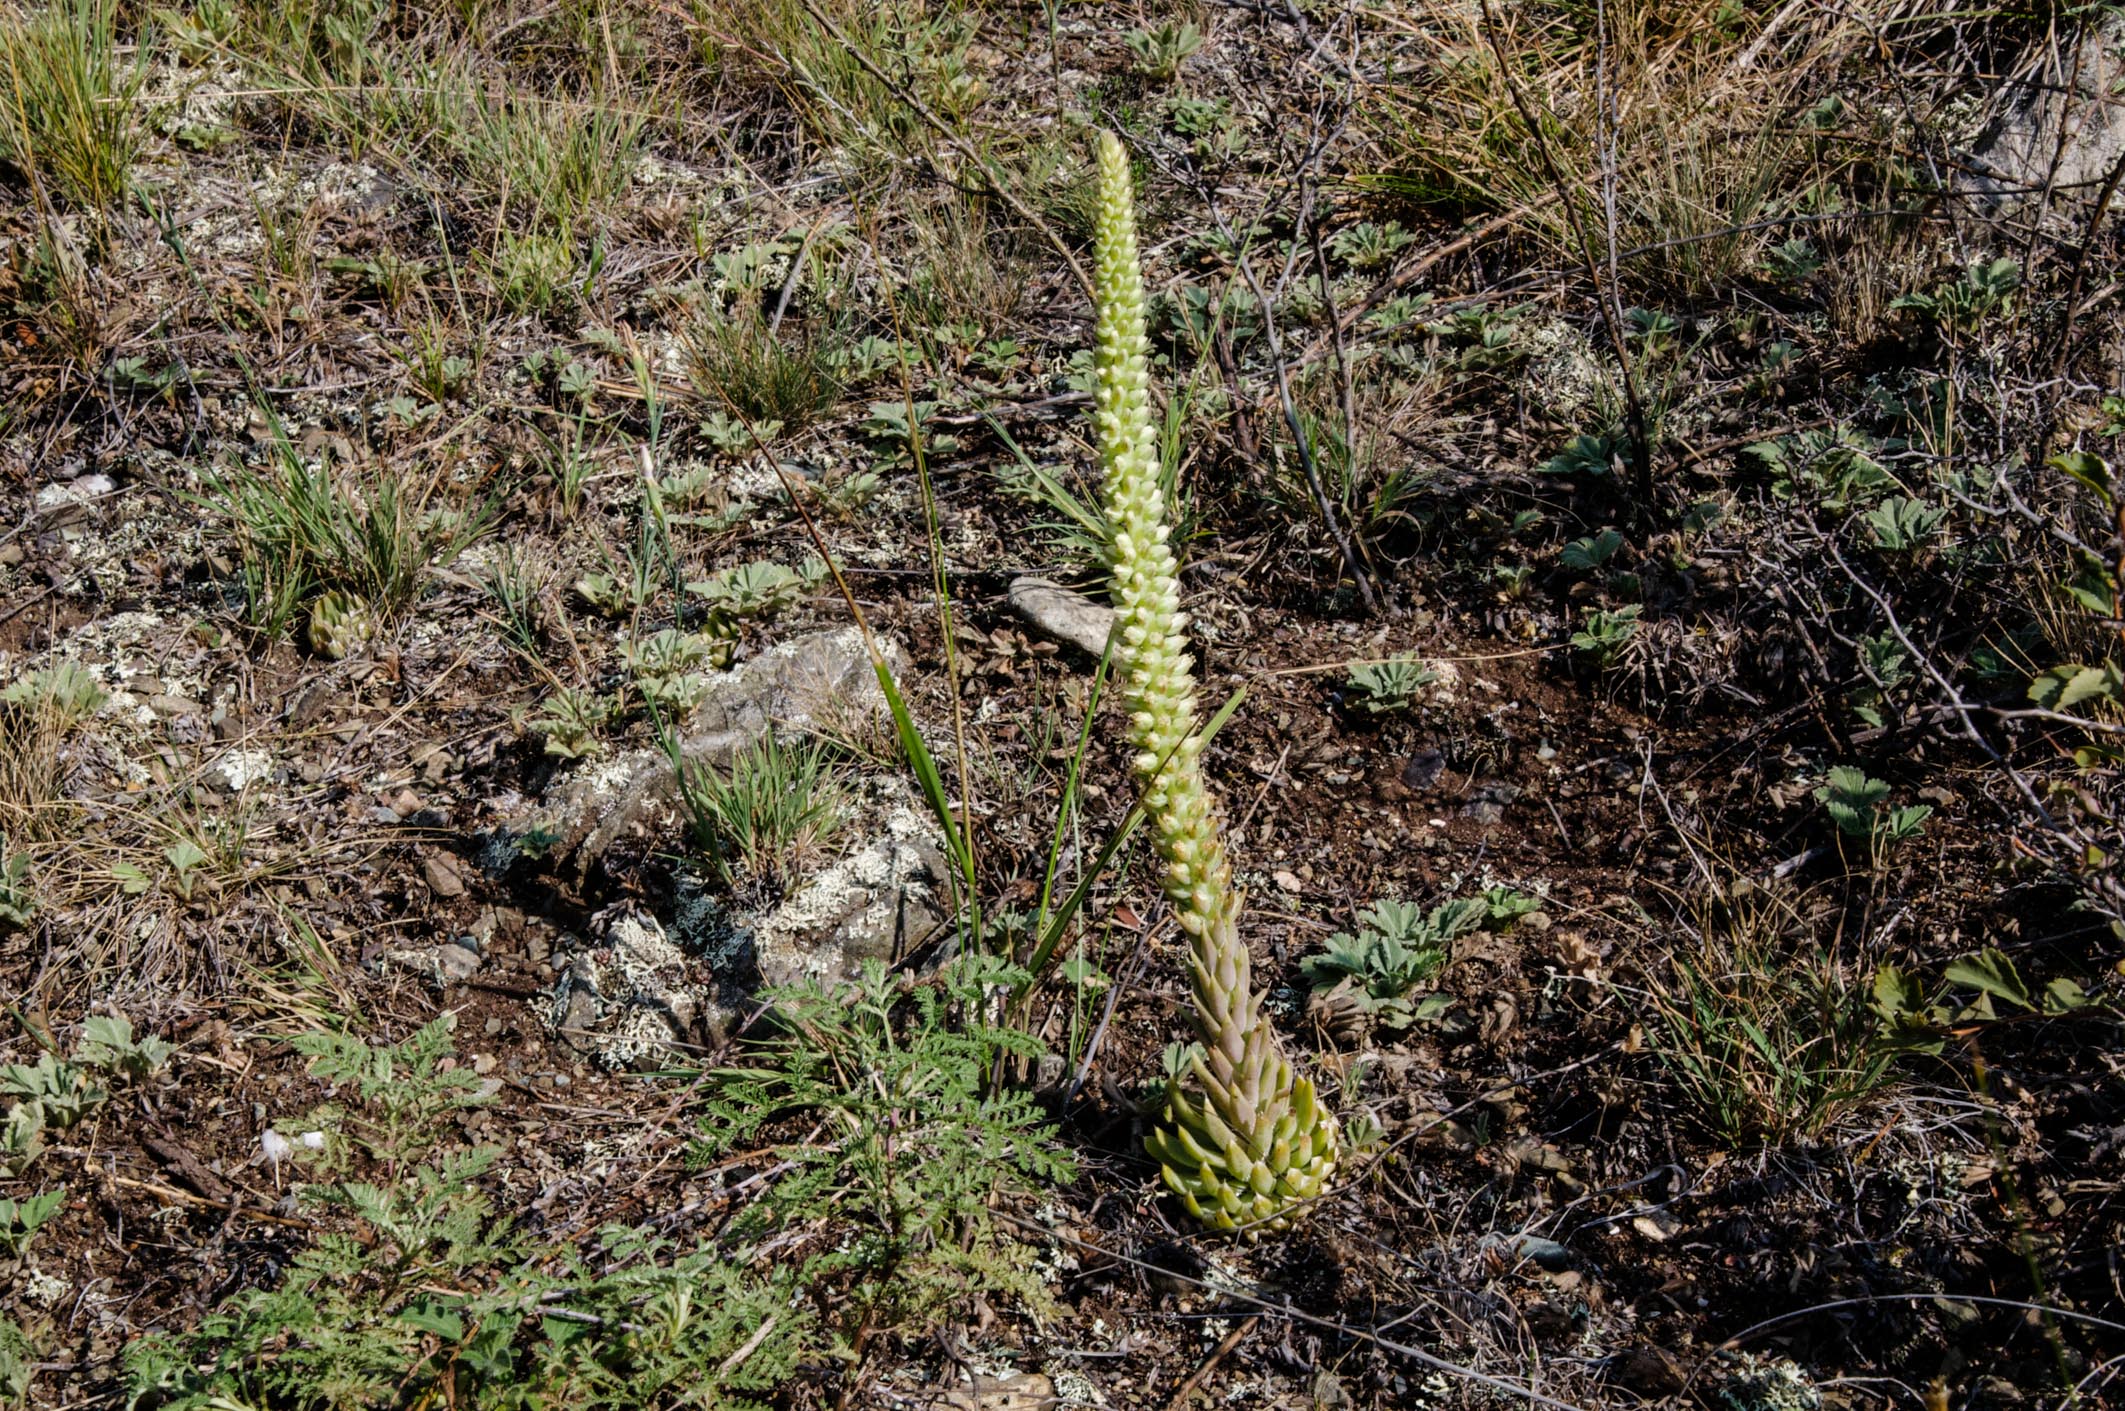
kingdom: Plantae
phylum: Tracheophyta
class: Magnoliopsida
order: Saxifragales
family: Crassulaceae
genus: Orostachys
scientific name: Orostachys spinosa
